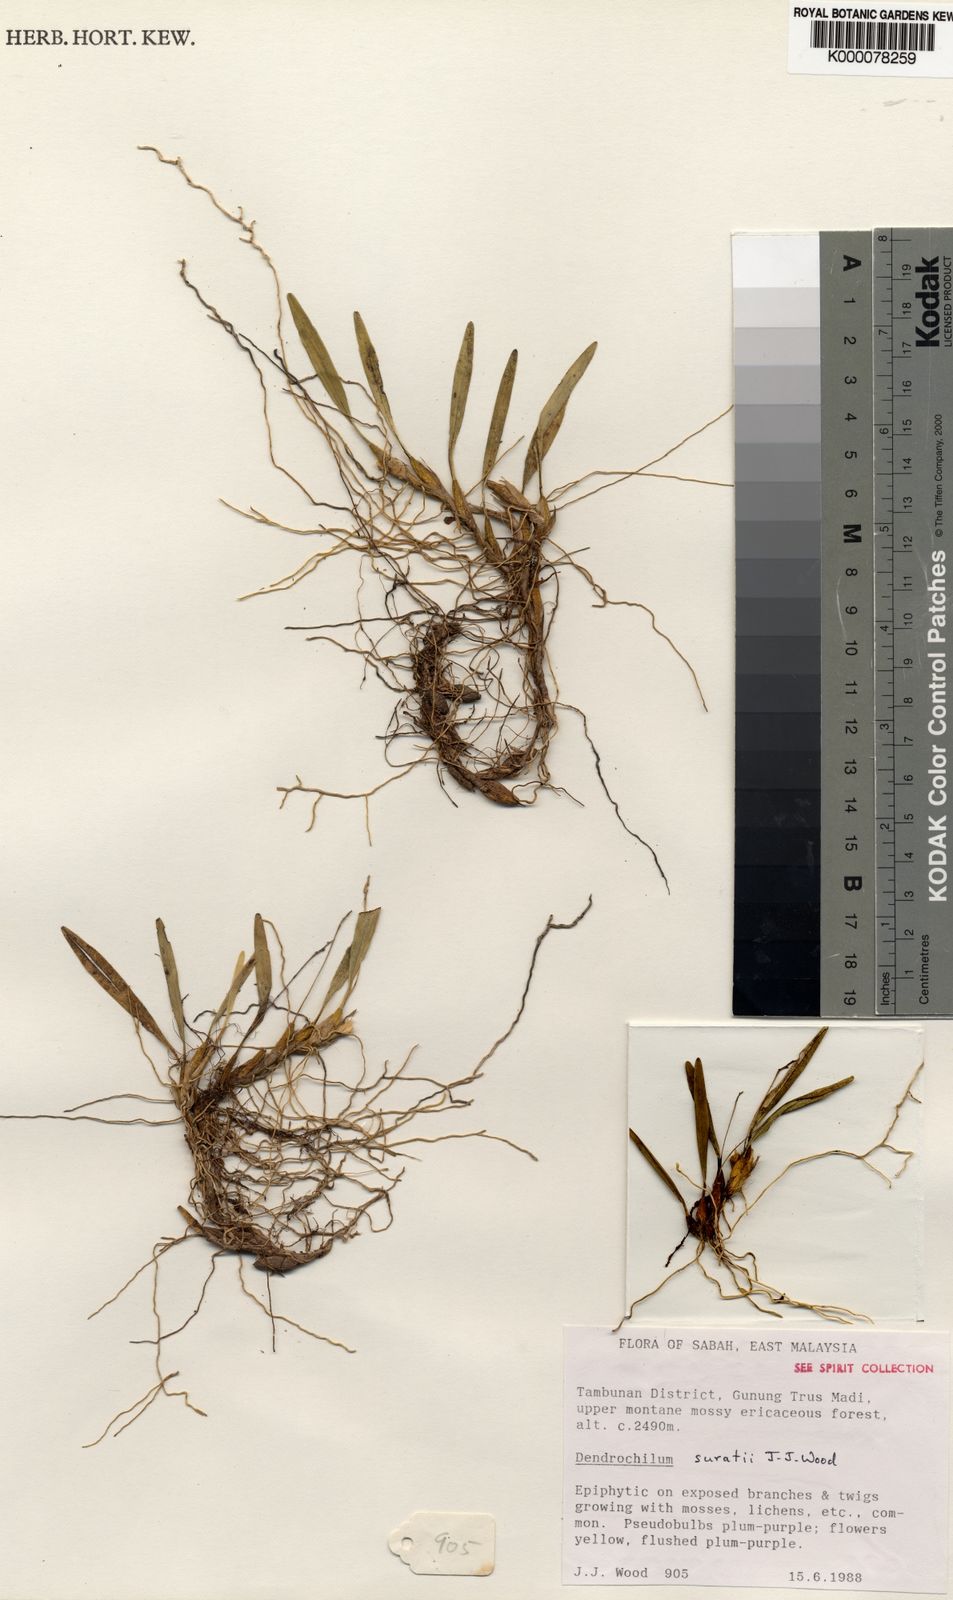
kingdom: Plantae
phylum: Tracheophyta
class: Liliopsida
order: Asparagales
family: Orchidaceae
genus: Coelogyne
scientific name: Coelogyne suratii
